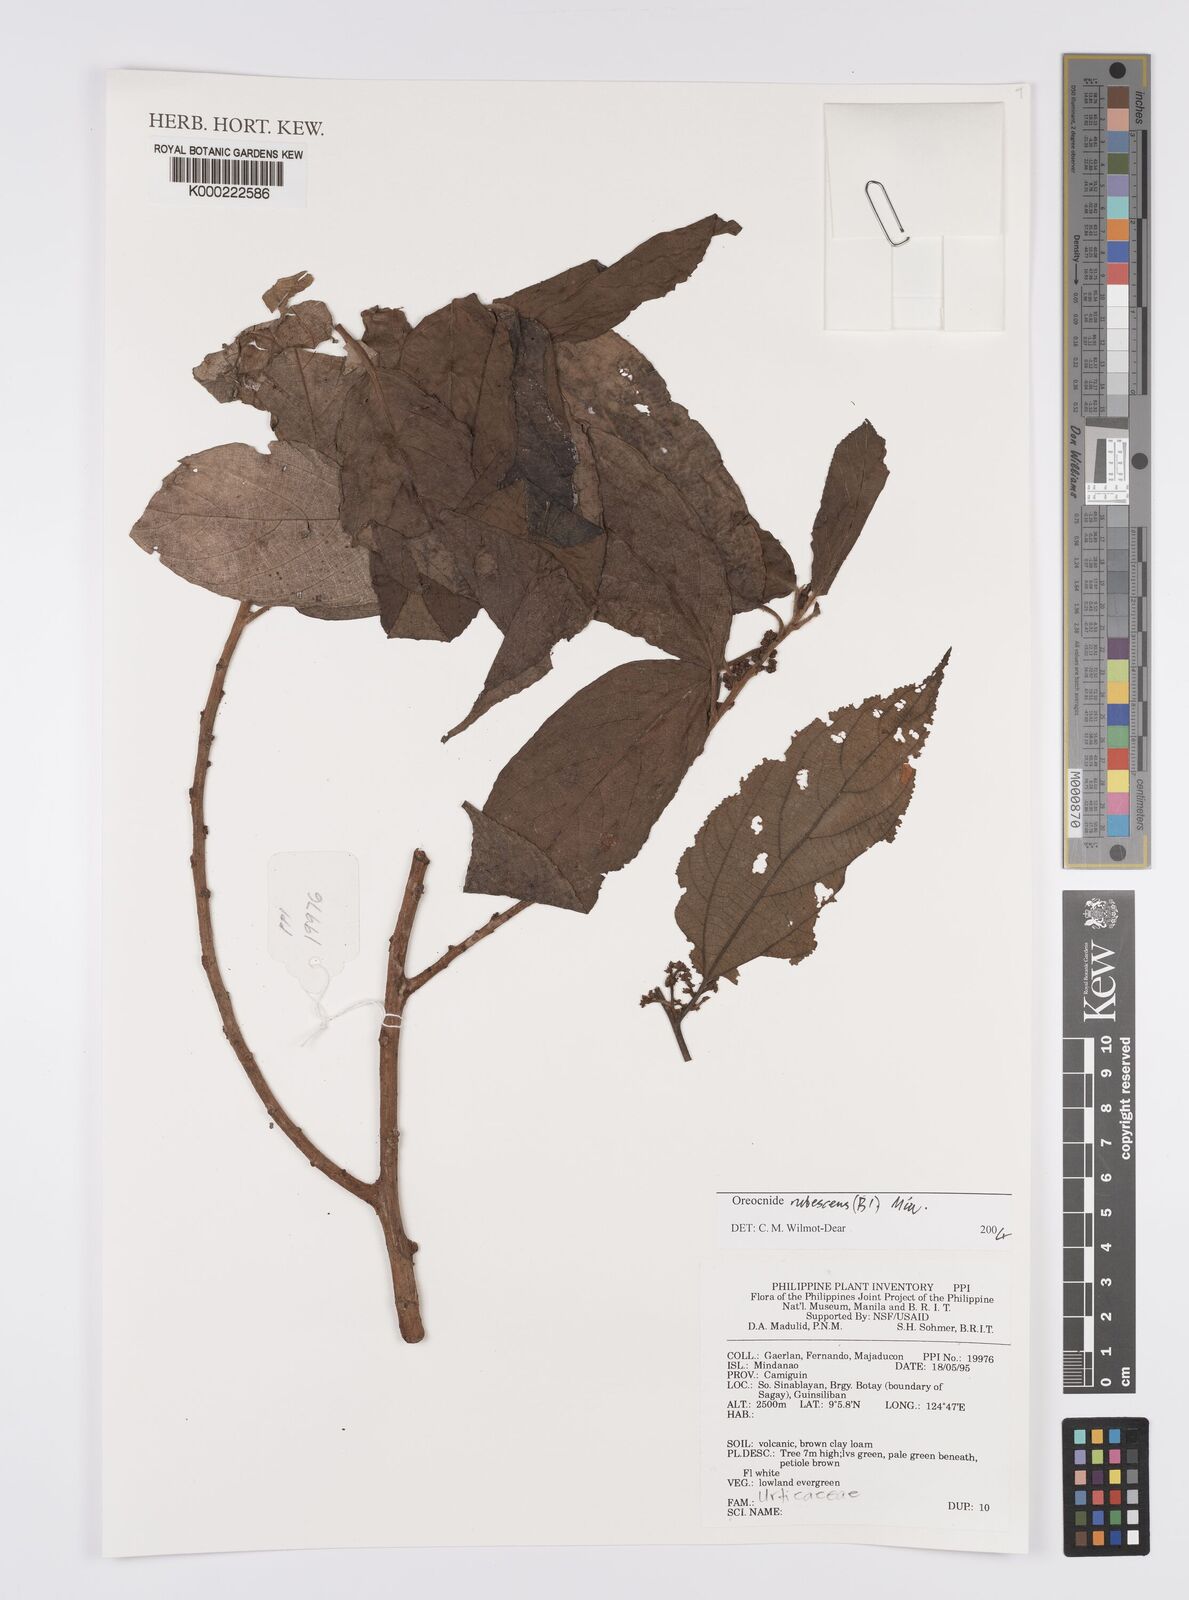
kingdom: Plantae
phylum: Tracheophyta
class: Magnoliopsida
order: Rosales
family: Urticaceae
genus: Oreocnide
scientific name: Oreocnide rubescens
